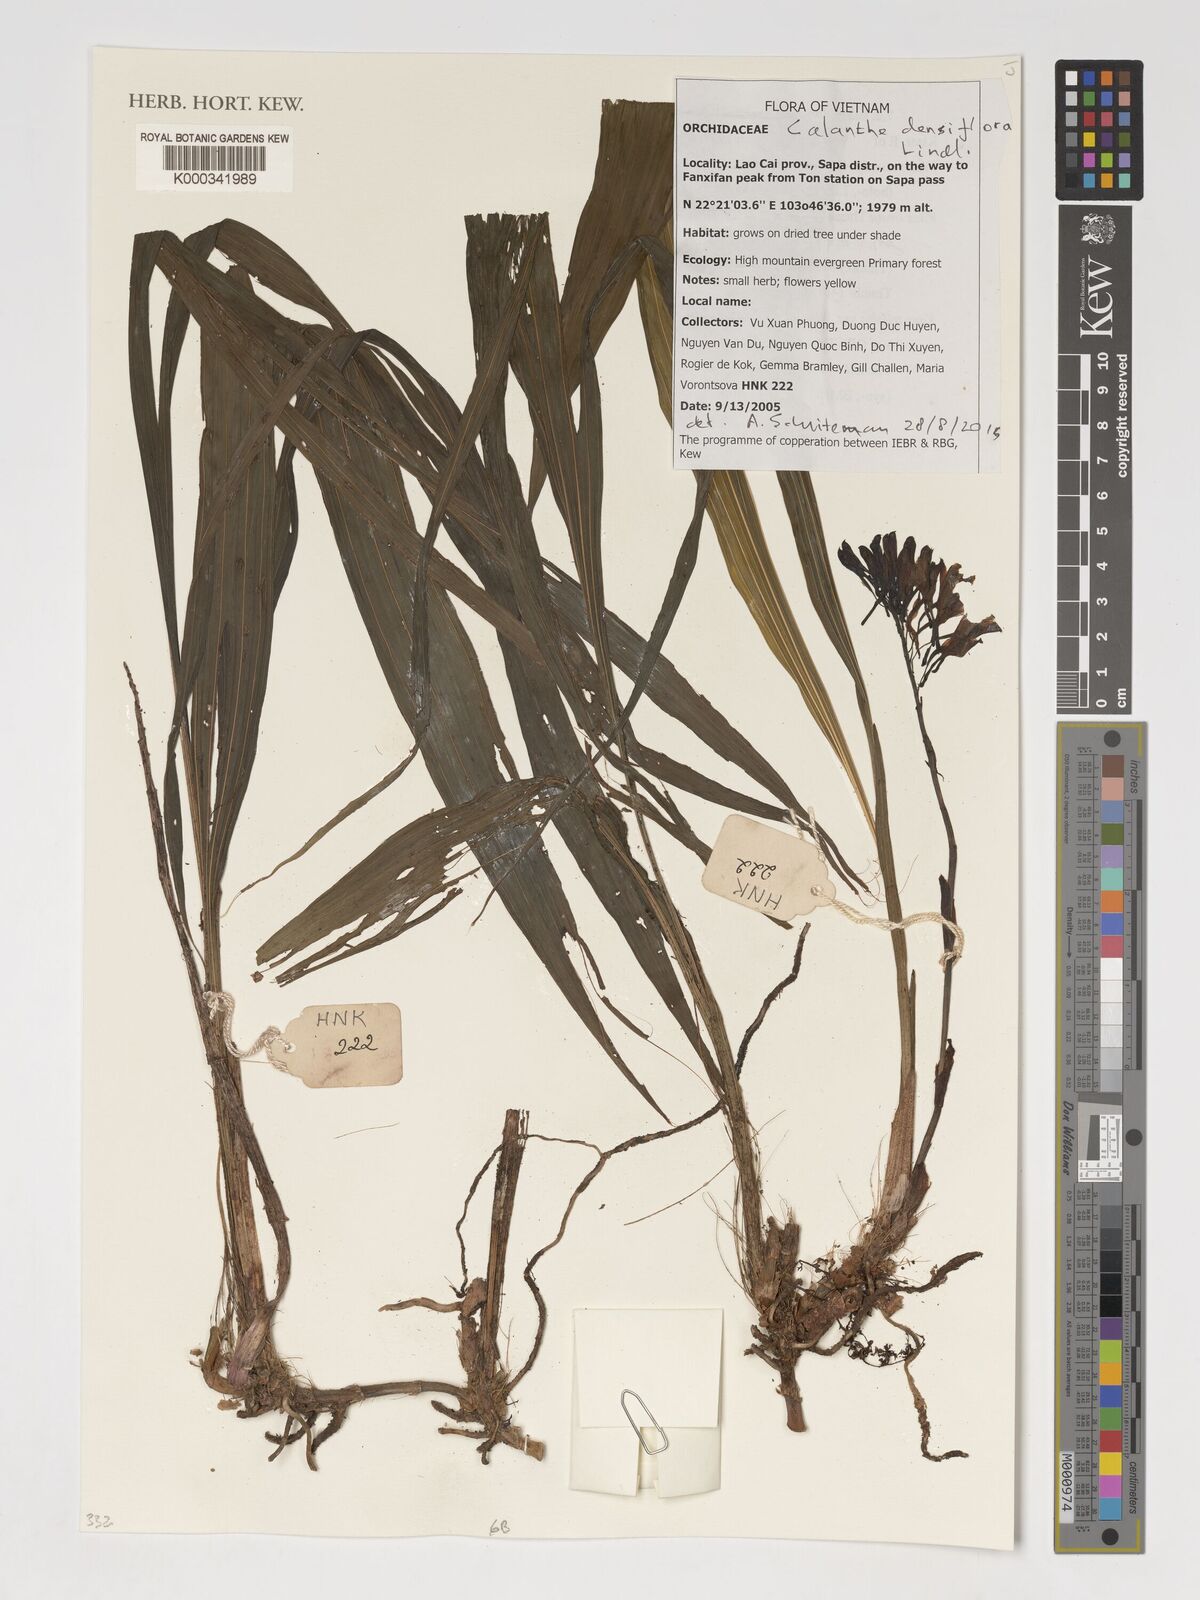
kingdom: Plantae
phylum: Tracheophyta
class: Liliopsida
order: Asparagales
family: Orchidaceae
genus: Calanthe
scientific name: Calanthe densiflora
